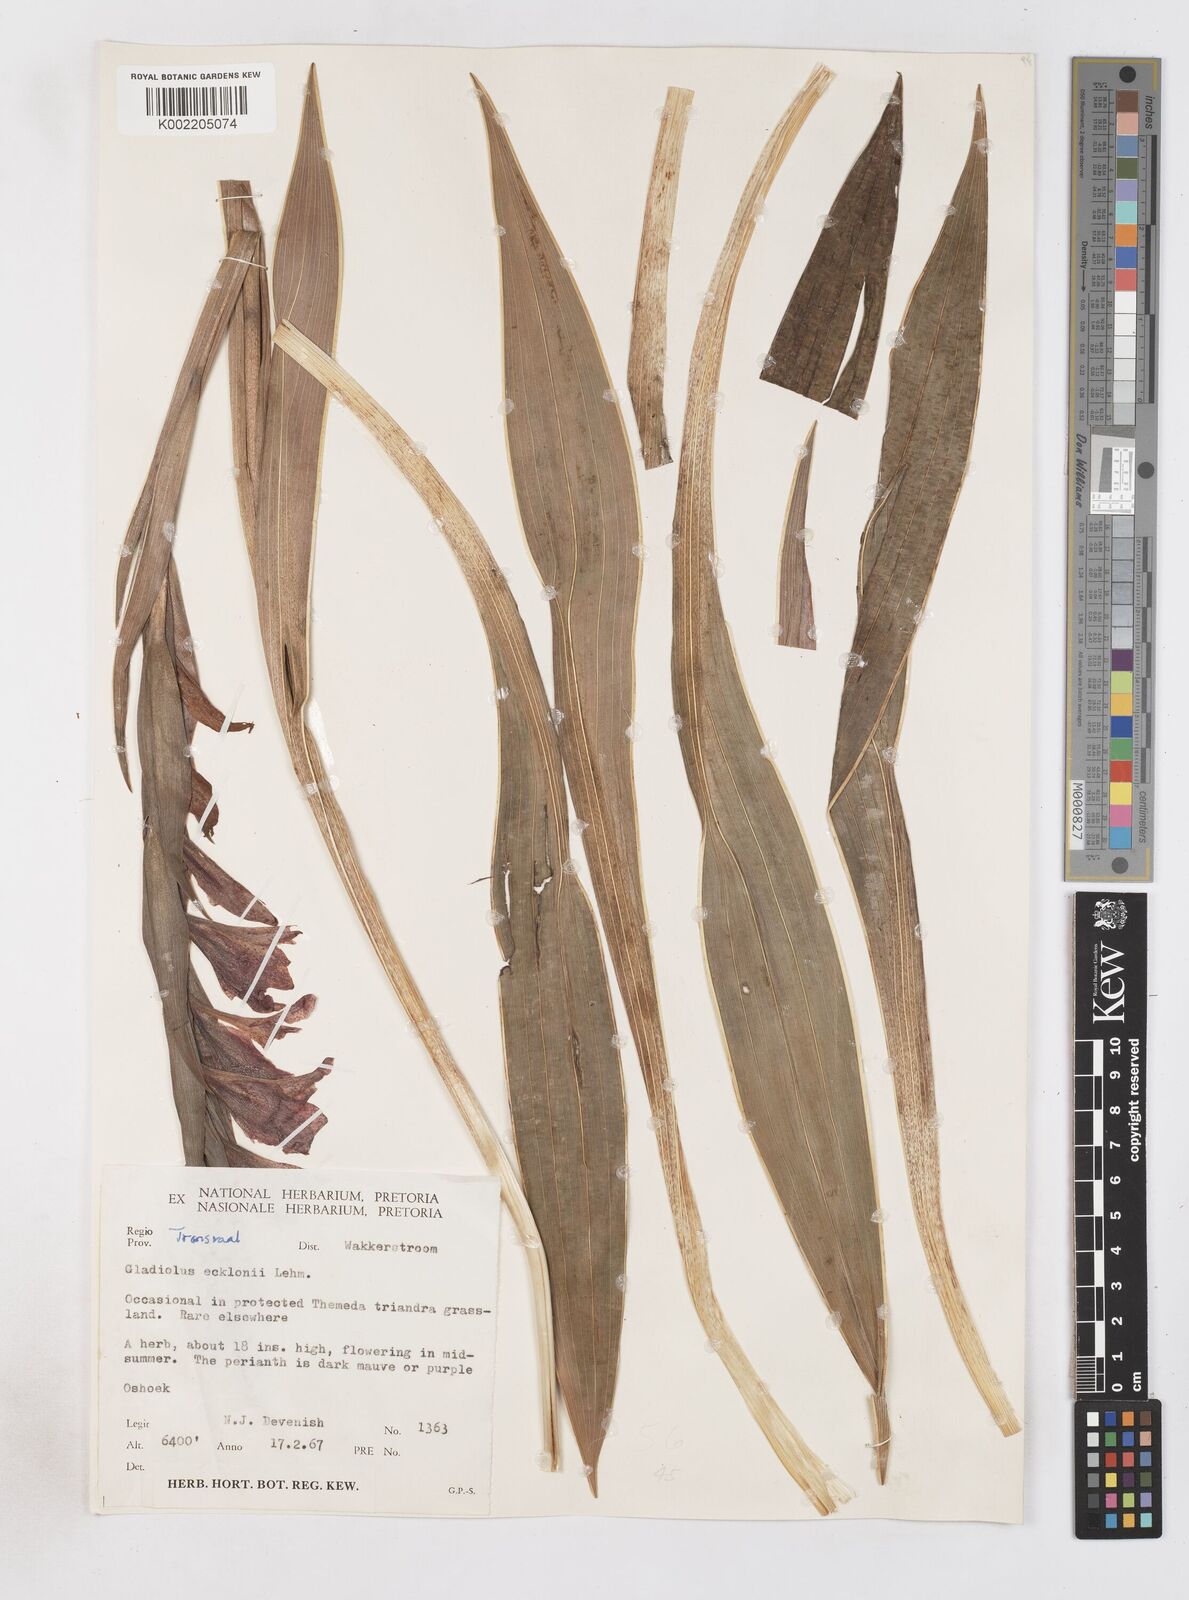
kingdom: Plantae
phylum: Tracheophyta
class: Liliopsida
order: Asparagales
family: Iridaceae
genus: Gladiolus
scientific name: Gladiolus ecklonii
